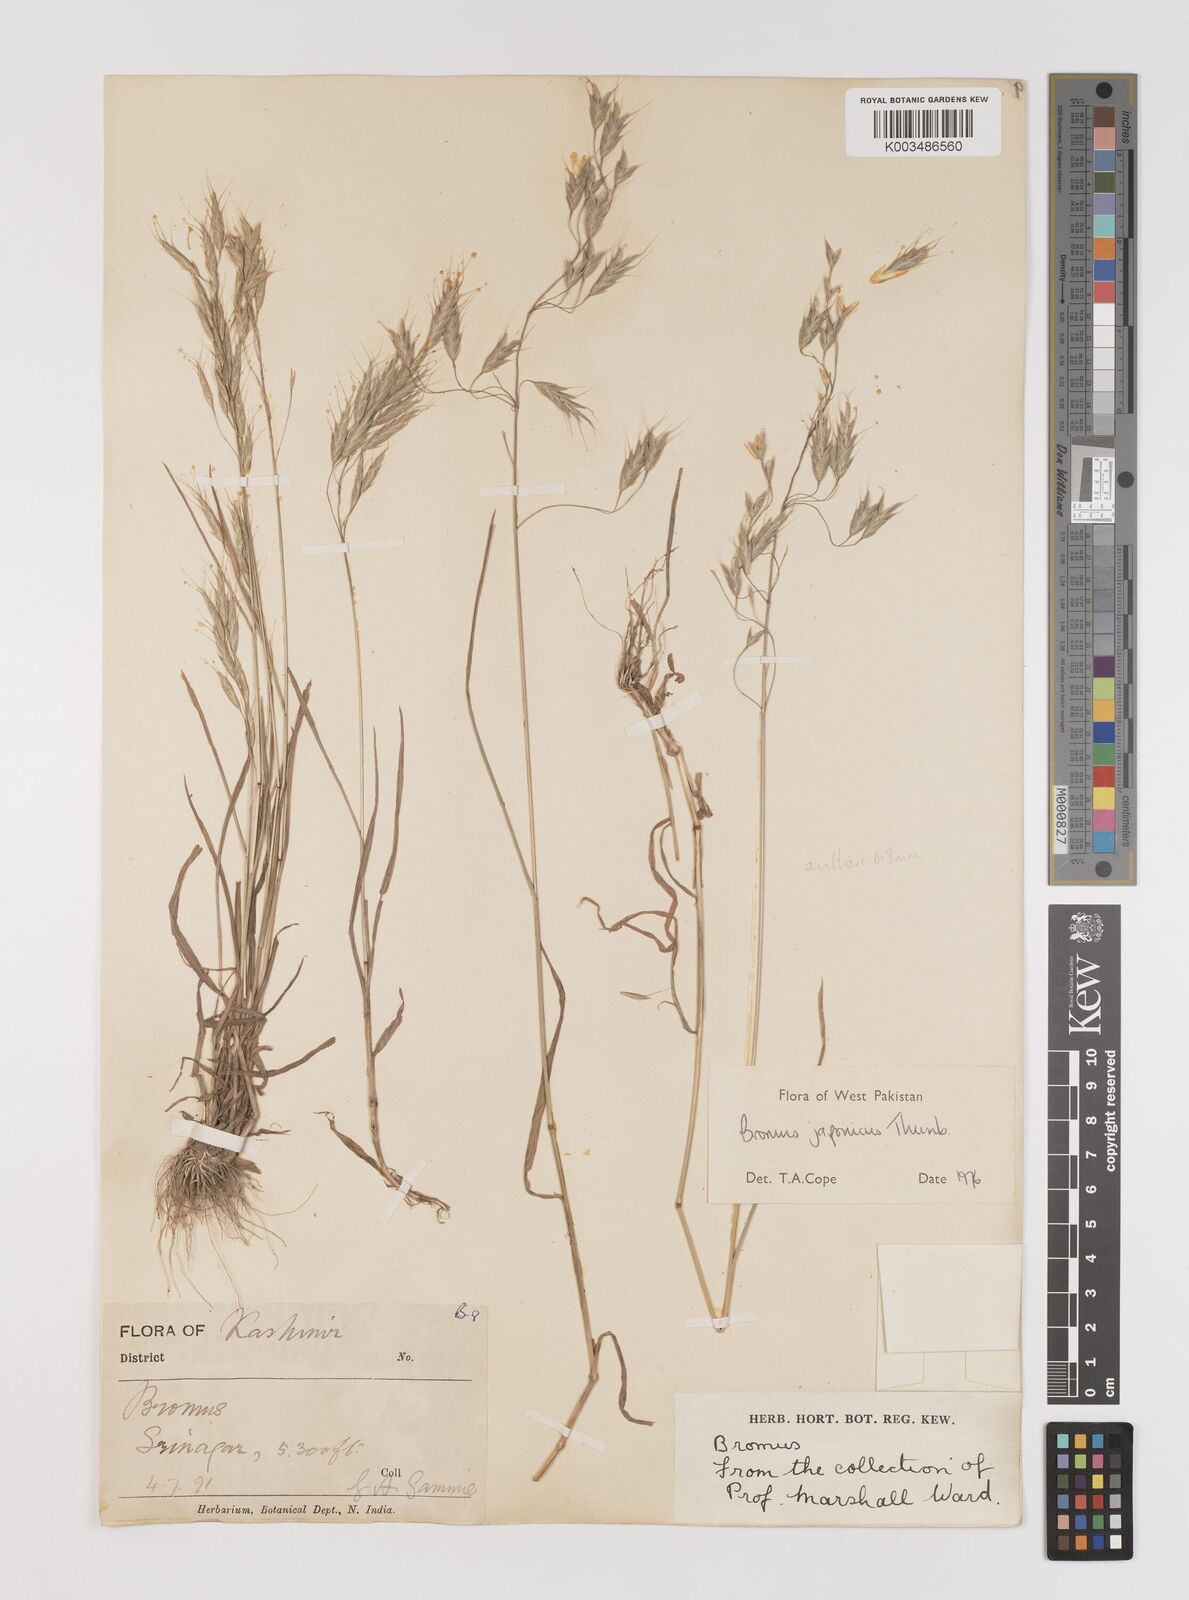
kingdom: Plantae
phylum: Tracheophyta
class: Liliopsida
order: Poales
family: Poaceae
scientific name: Poaceae
